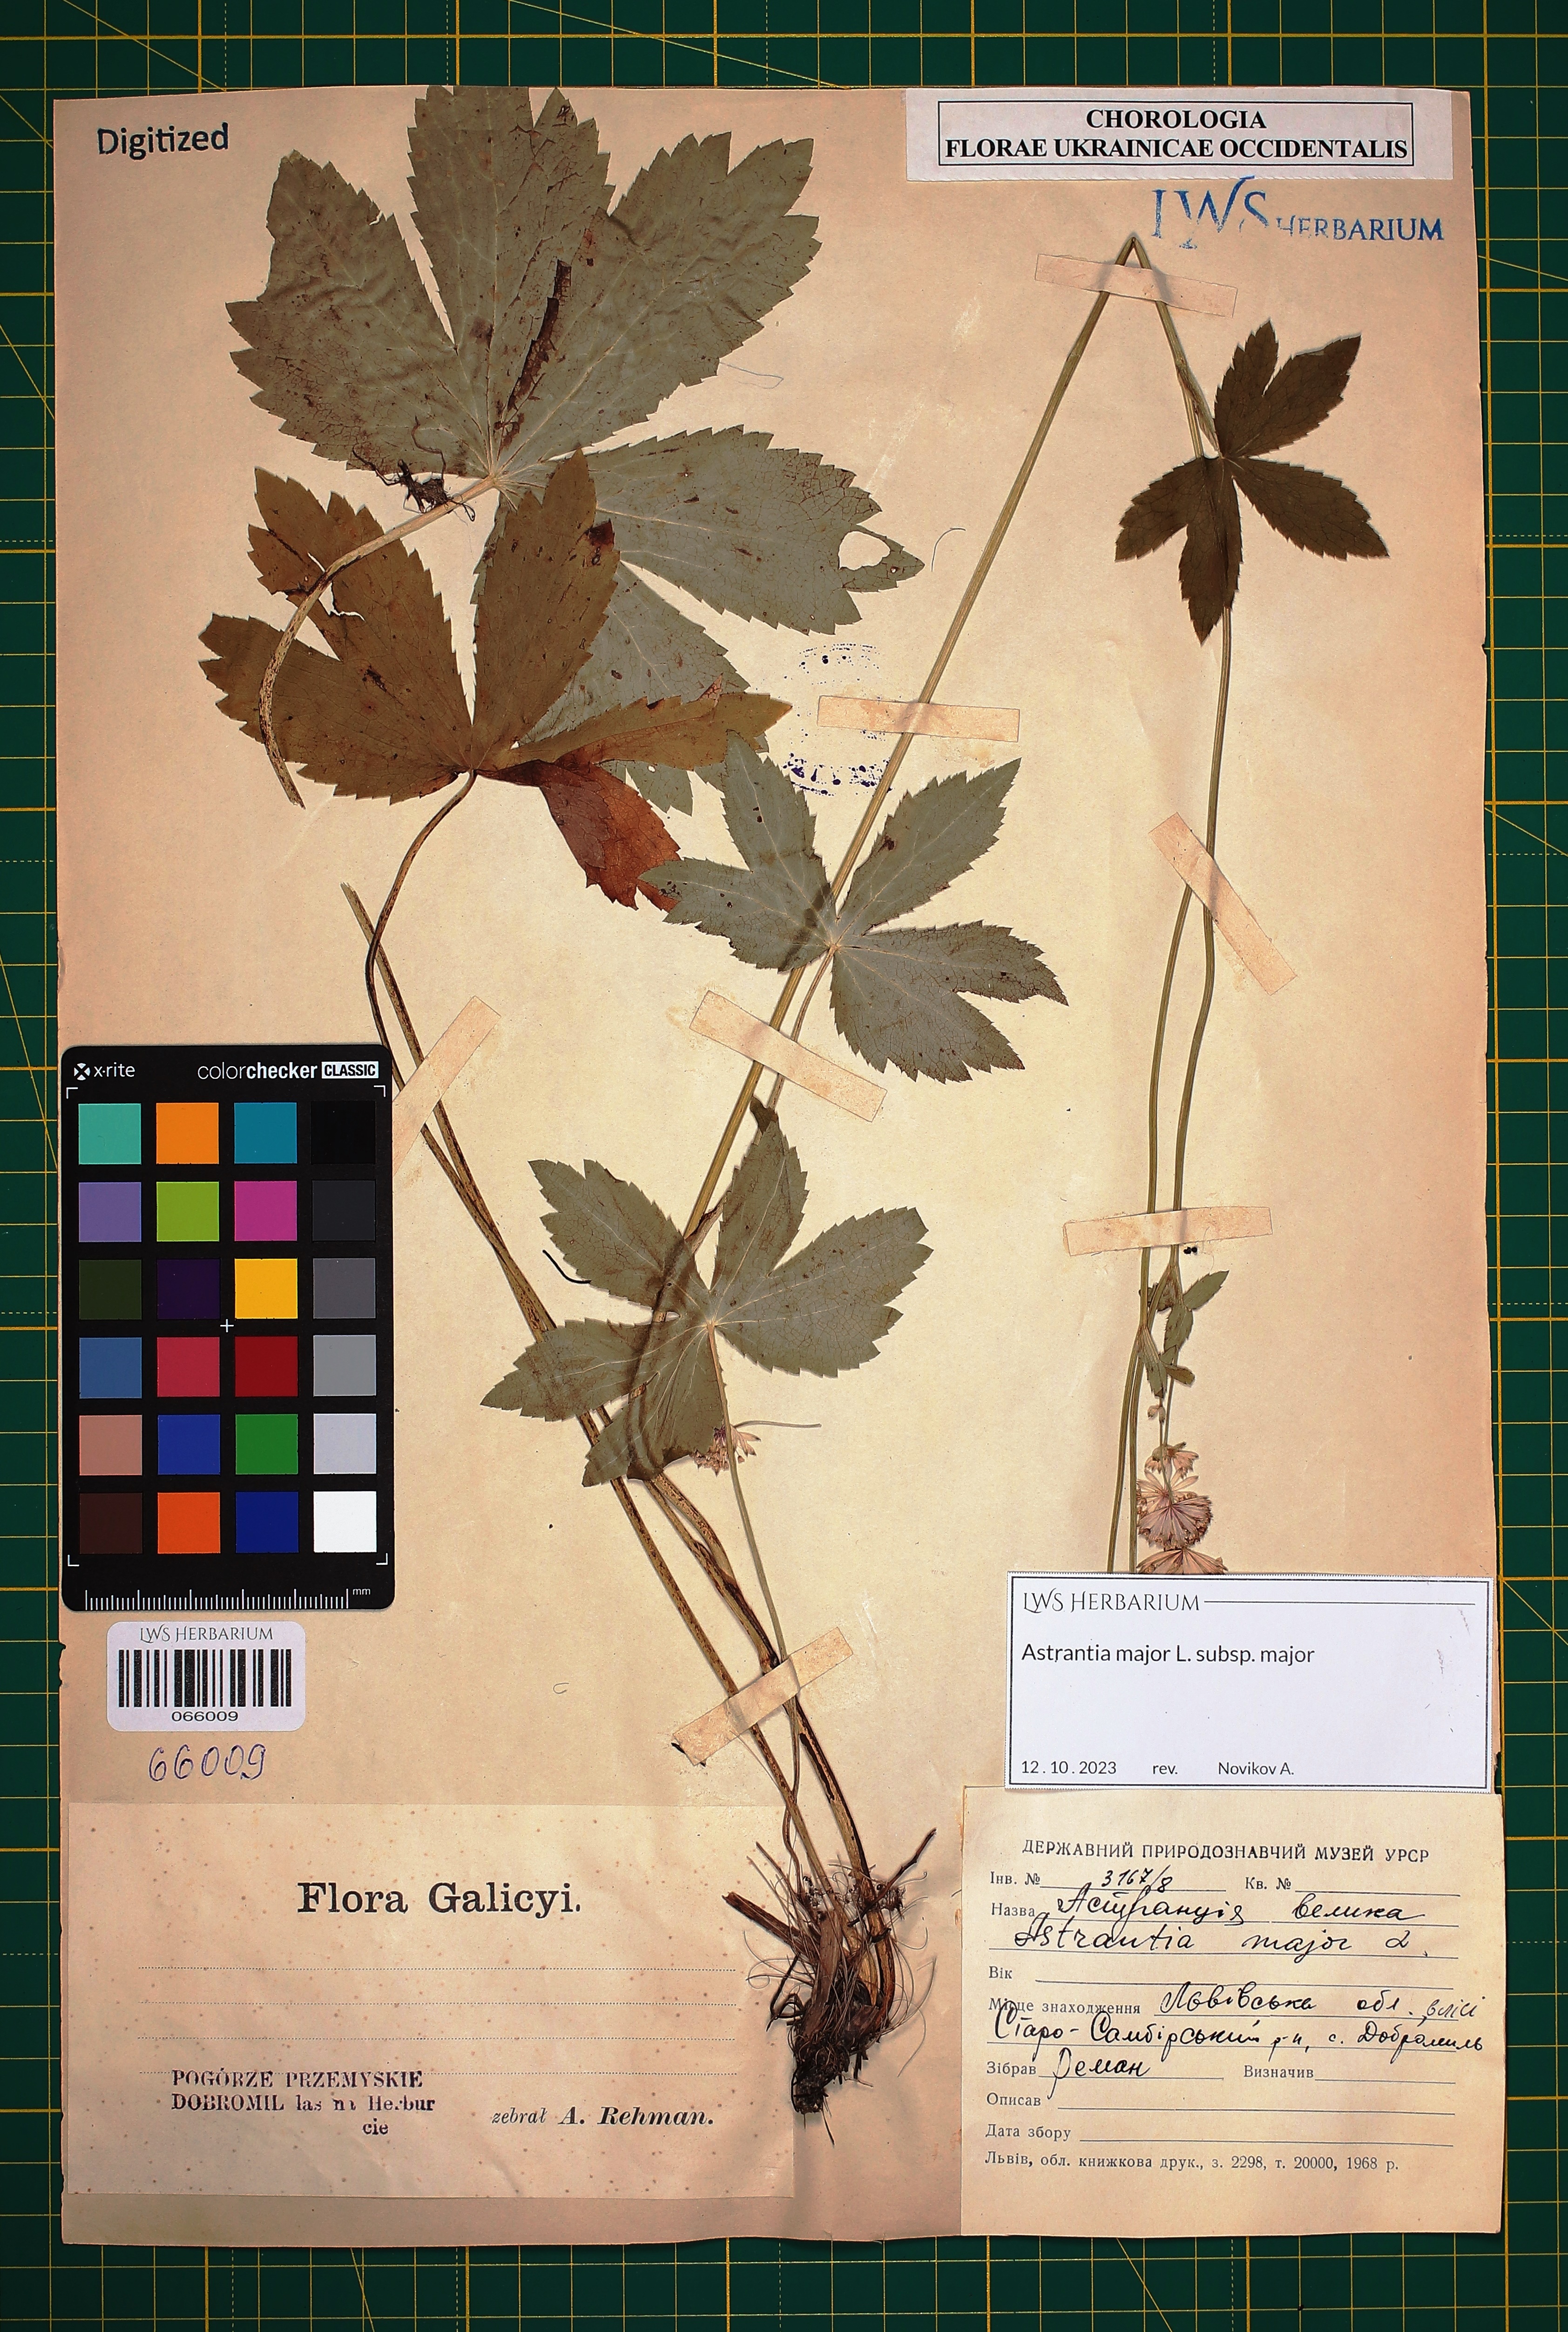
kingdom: Plantae
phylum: Tracheophyta
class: Magnoliopsida
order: Apiales
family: Apiaceae
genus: Astrantia
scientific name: Astrantia major
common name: Greater masterwort
